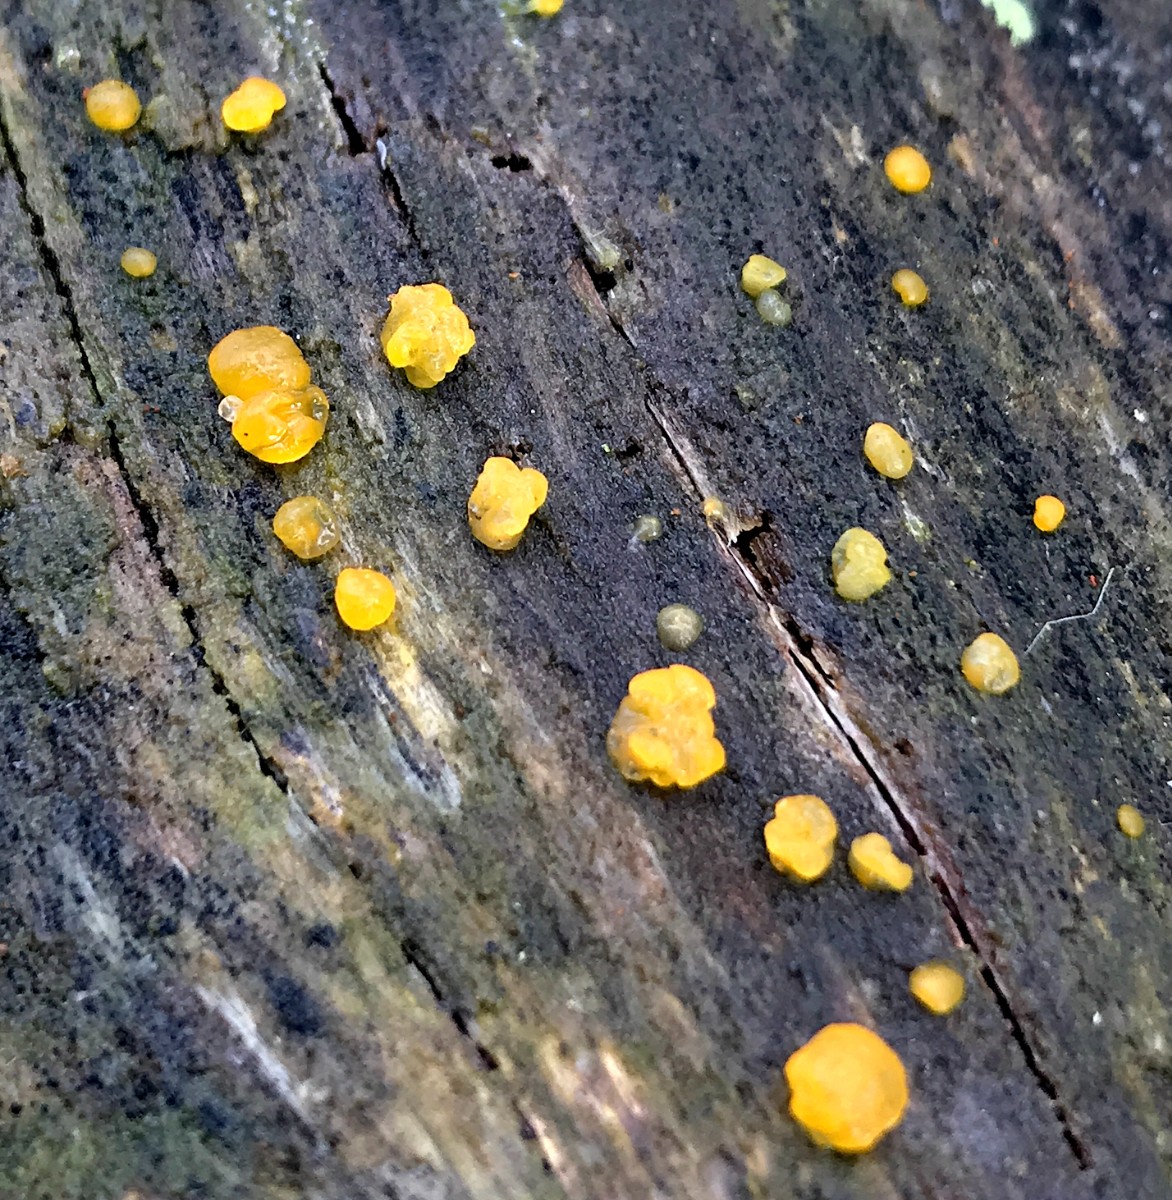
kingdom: Fungi
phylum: Basidiomycota
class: Dacrymycetes
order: Dacrymycetales
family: Dacrymycetaceae
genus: Dacrymyces
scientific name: Dacrymyces stillatus
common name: almindelig tåresvamp
